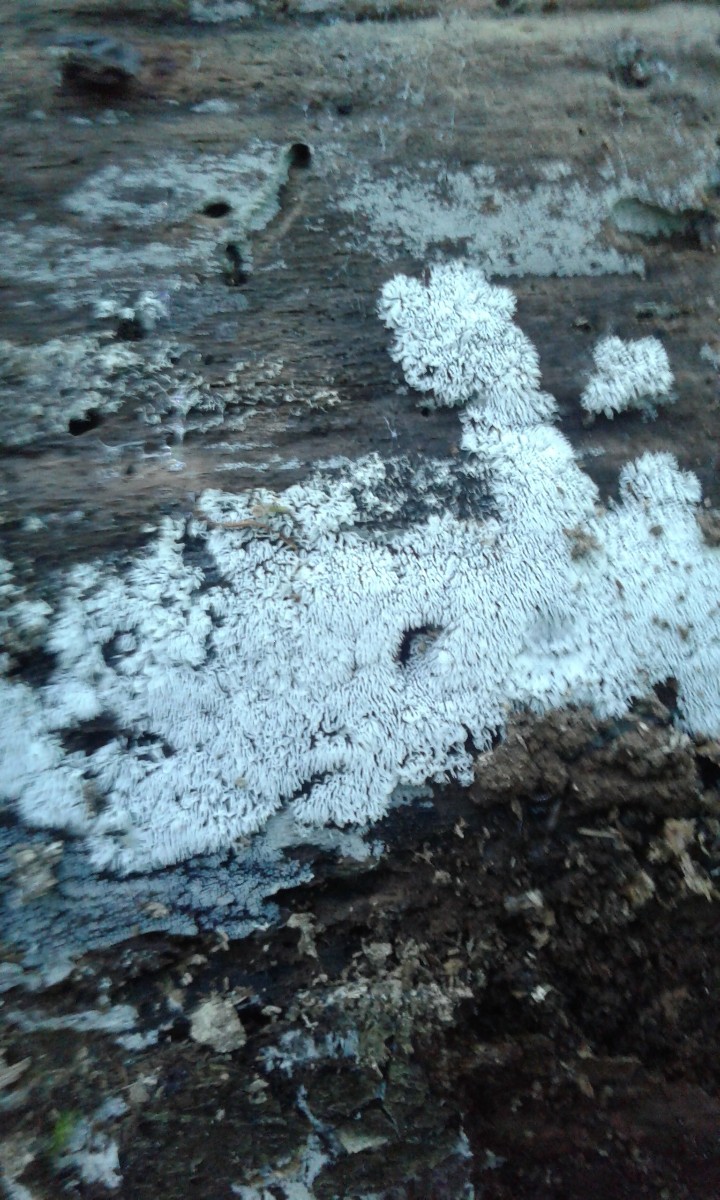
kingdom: Protozoa
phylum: Mycetozoa
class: Protosteliomycetes
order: Ceratiomyxales
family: Ceratiomyxaceae
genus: Ceratiomyxa
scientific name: Ceratiomyxa fruticulosa
